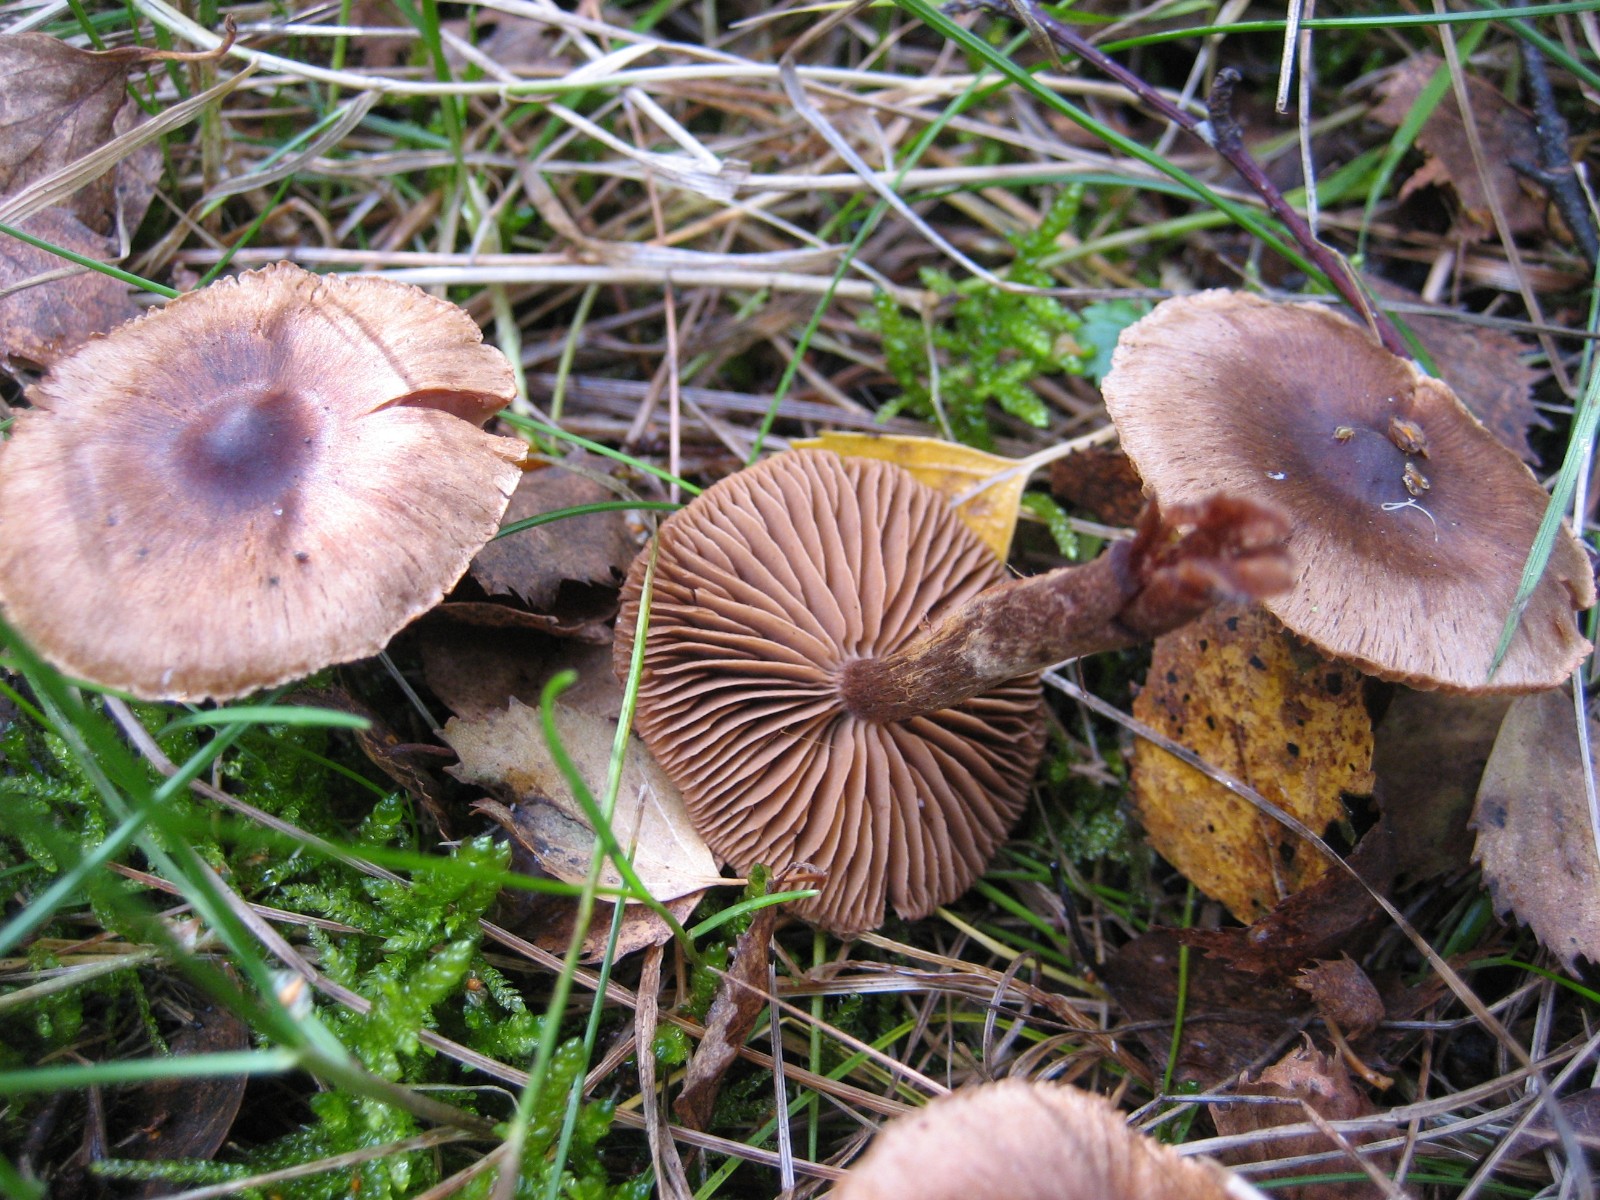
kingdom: Fungi
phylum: Basidiomycota
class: Agaricomycetes
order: Agaricales
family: Cortinariaceae
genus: Cortinarius
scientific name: Cortinarius
